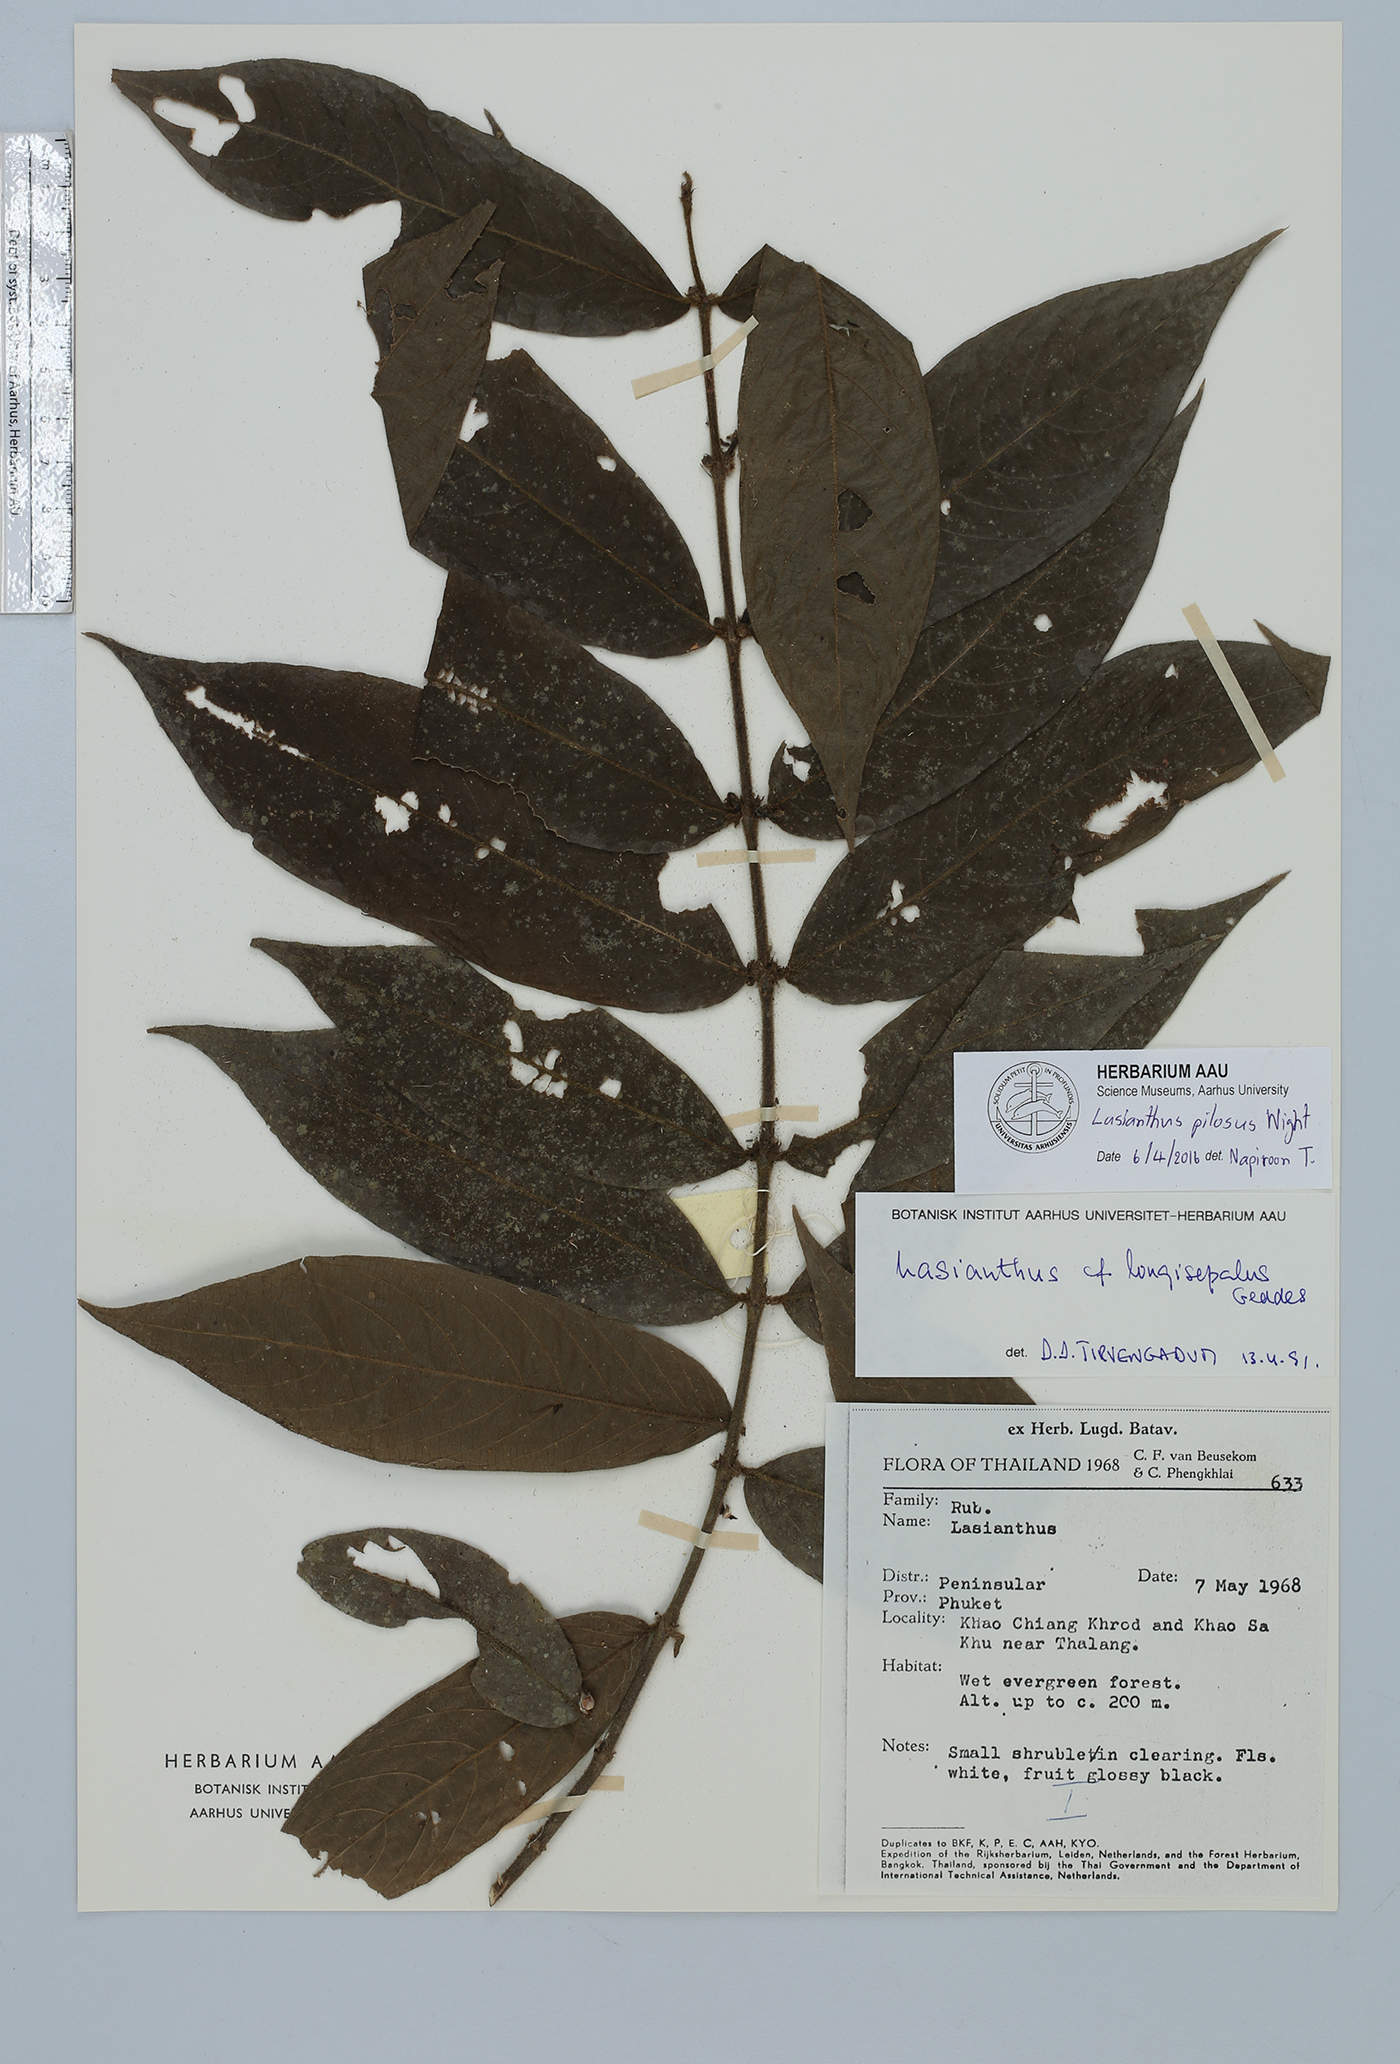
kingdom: Plantae
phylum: Tracheophyta
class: Magnoliopsida
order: Gentianales
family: Rubiaceae
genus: Lasianthus
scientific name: Lasianthus pilosus
